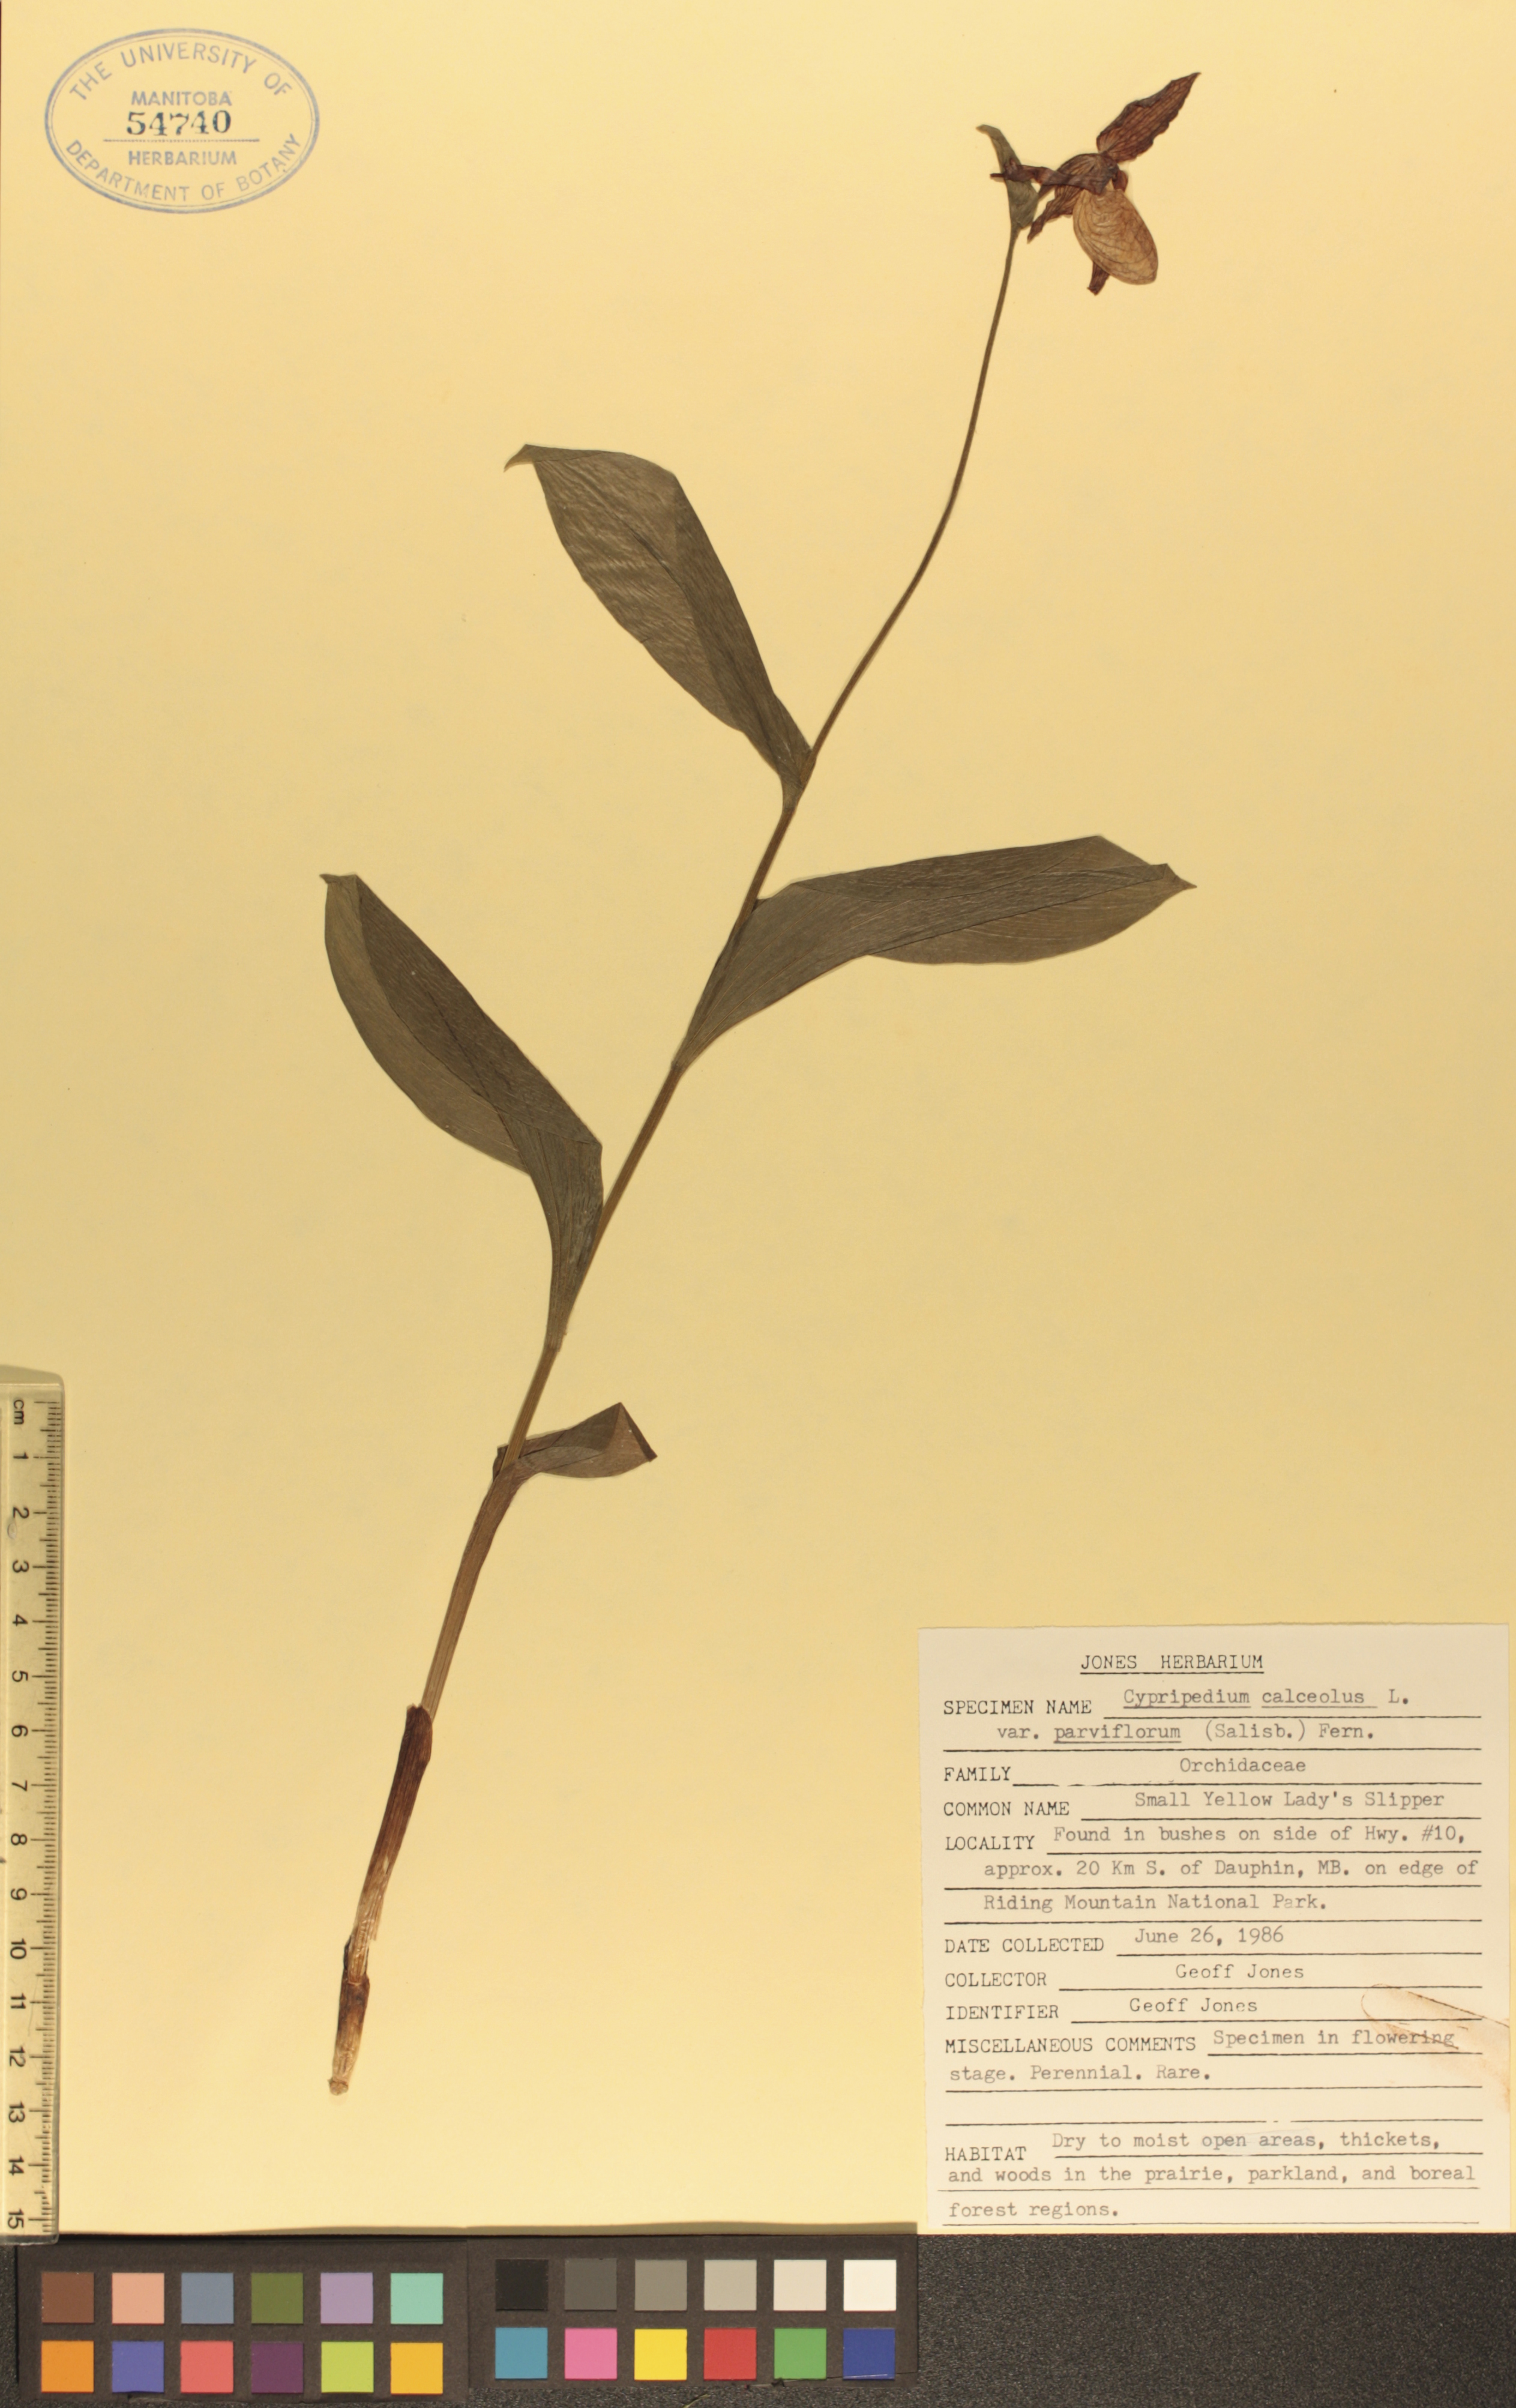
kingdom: Plantae
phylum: Tracheophyta
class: Liliopsida
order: Asparagales
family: Orchidaceae
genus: Cypripedium
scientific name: Cypripedium parviflorum
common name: American yellow lady's-slipper
